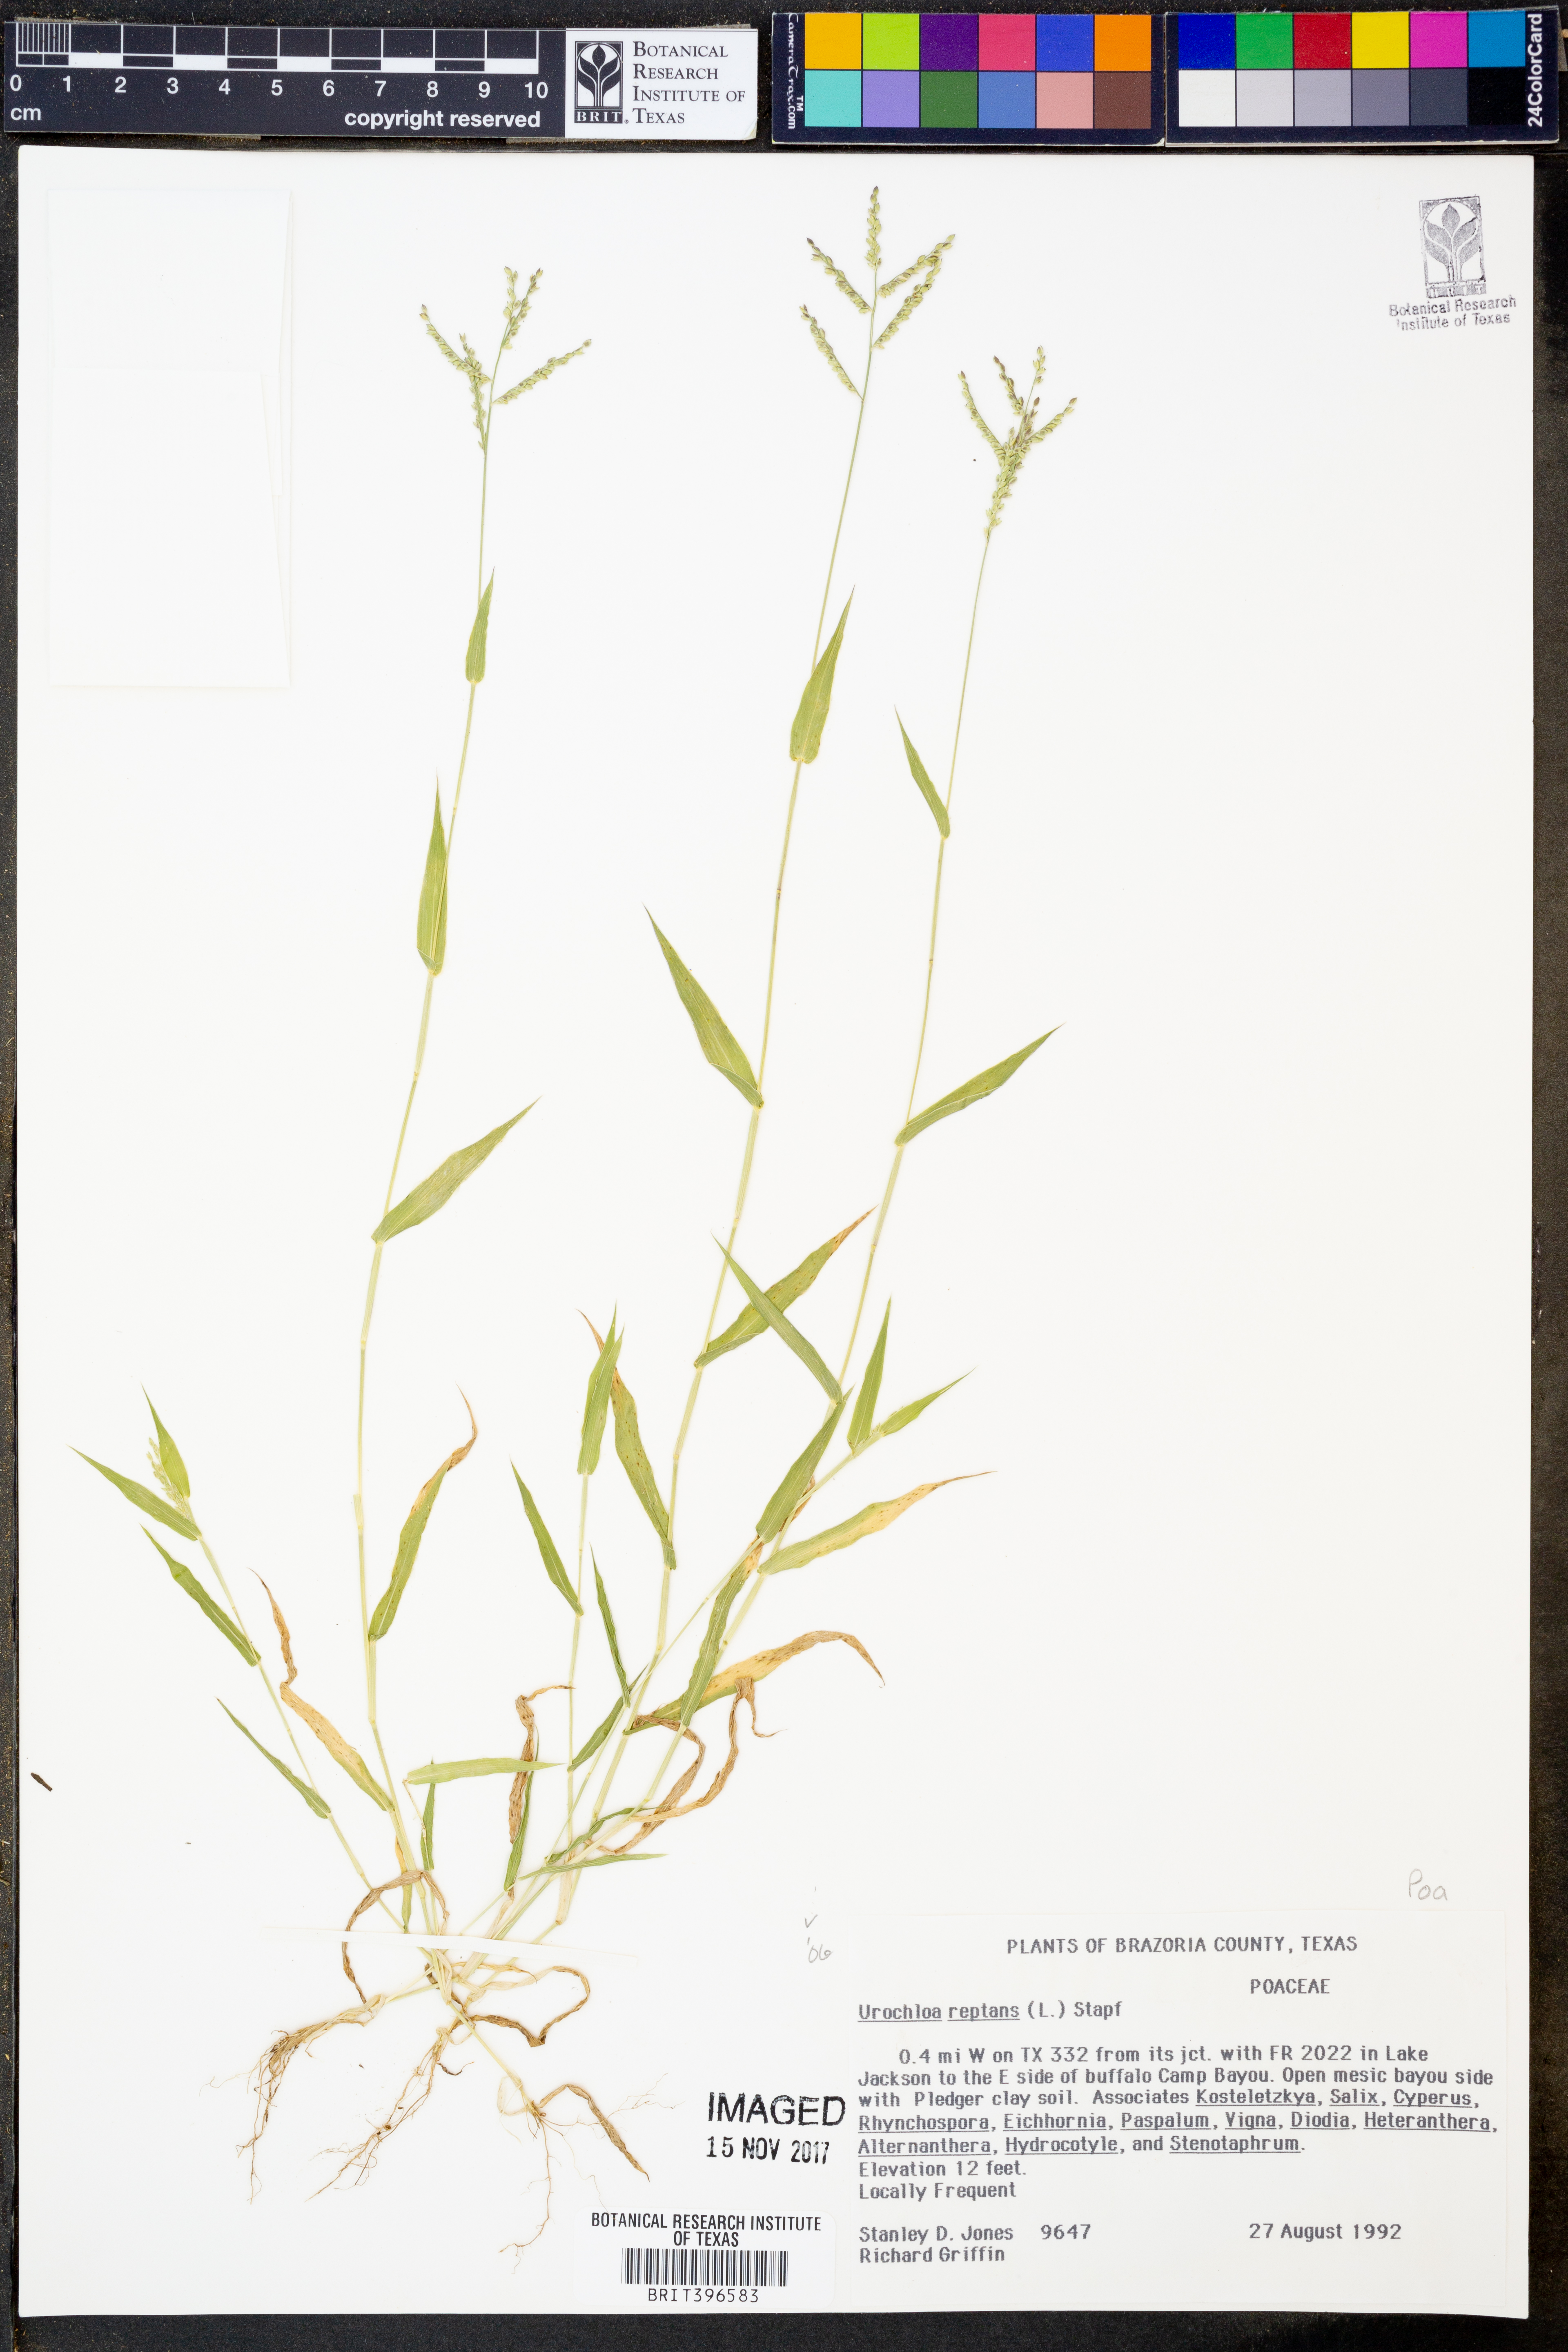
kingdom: Plantae
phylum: Tracheophyta
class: Liliopsida
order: Poales
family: Poaceae
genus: Urochloa
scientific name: Urochloa reptans
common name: Sprawling signalgrass
